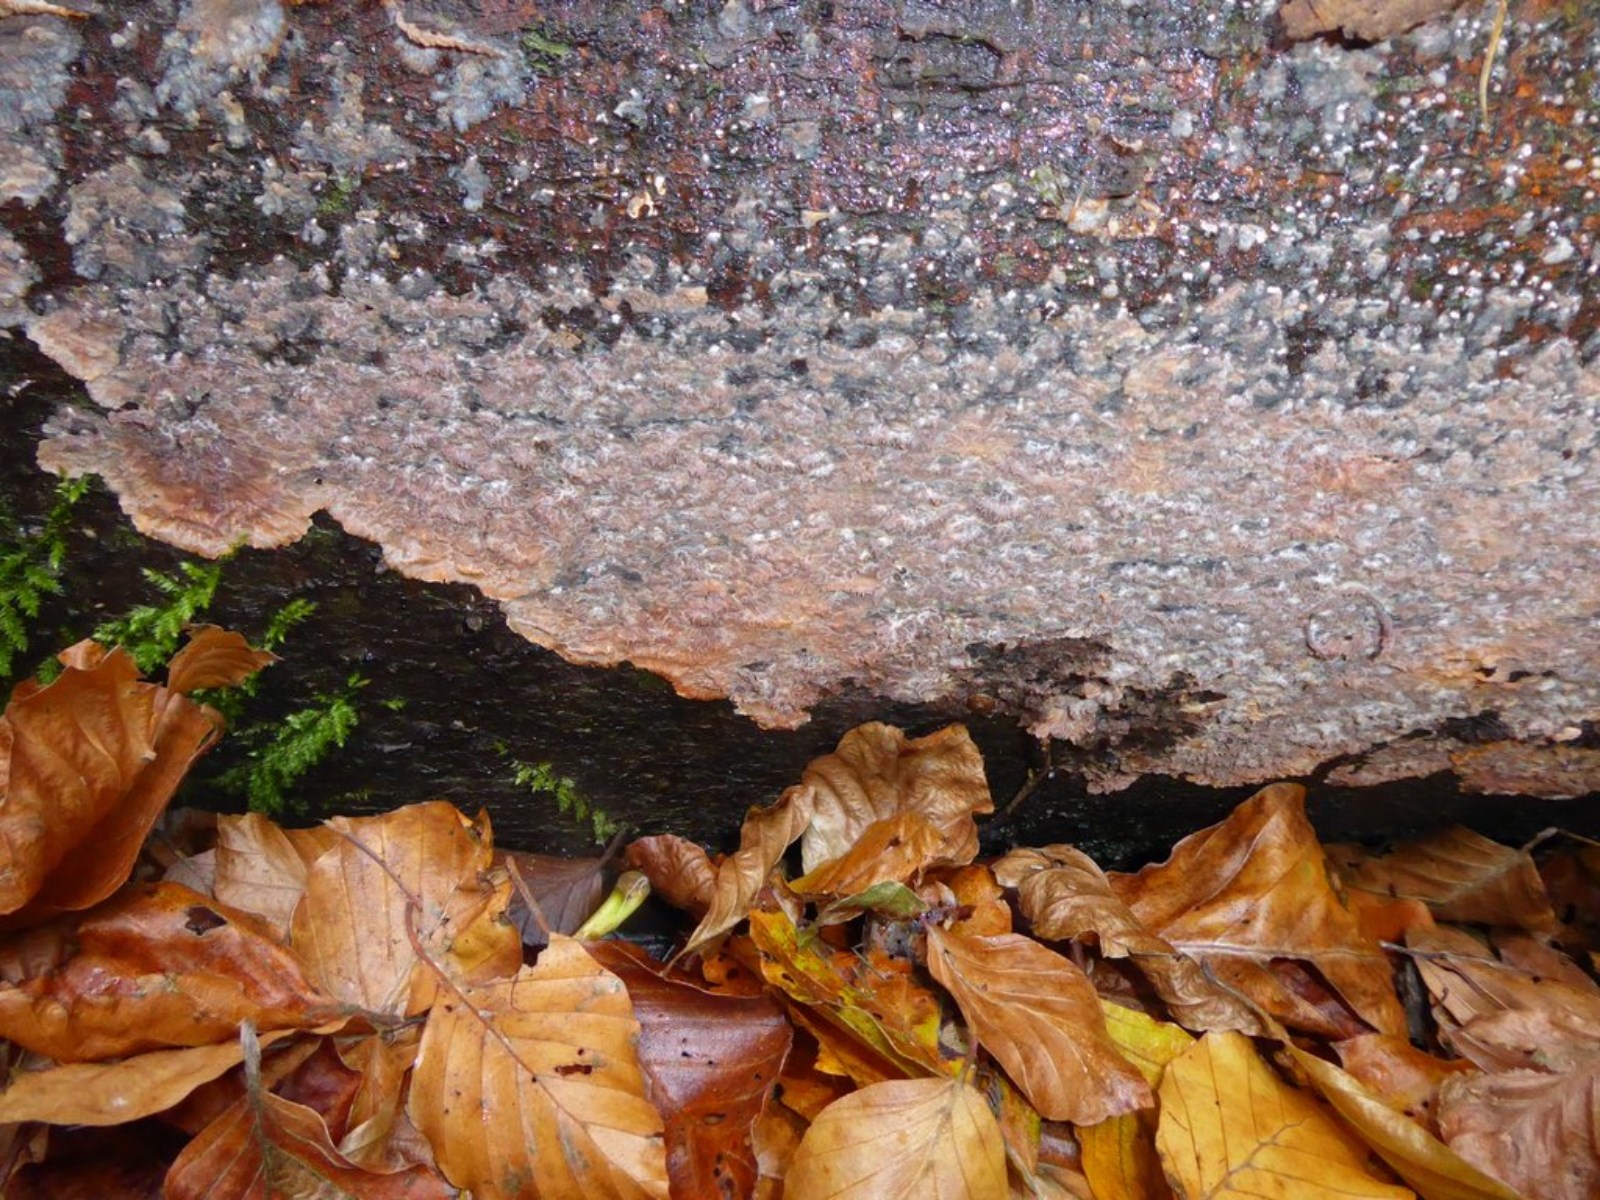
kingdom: Fungi
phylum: Basidiomycota
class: Agaricomycetes
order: Polyporales
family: Meruliaceae
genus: Phlebia
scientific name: Phlebia radiata
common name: stråle-åresvamp
